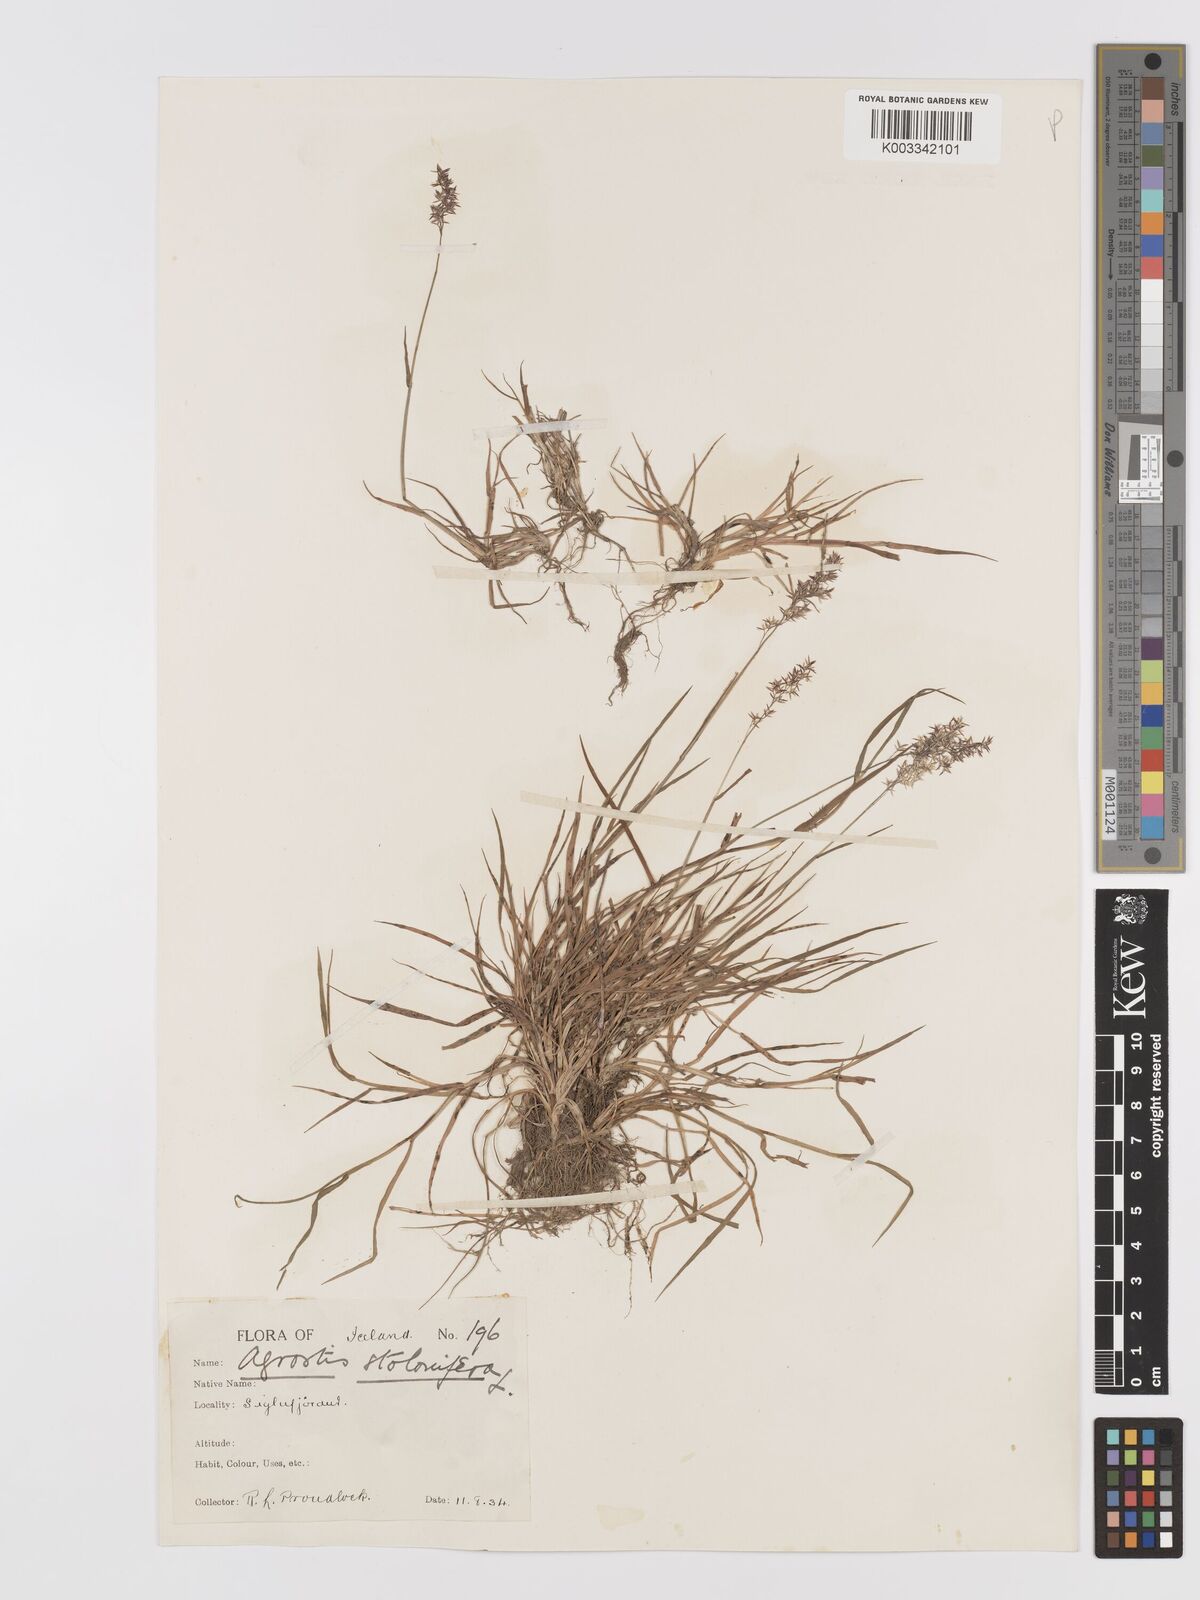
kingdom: Plantae
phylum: Tracheophyta
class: Liliopsida
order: Poales
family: Poaceae
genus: Agrostis
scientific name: Agrostis stolonifera
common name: Creeping bentgrass
